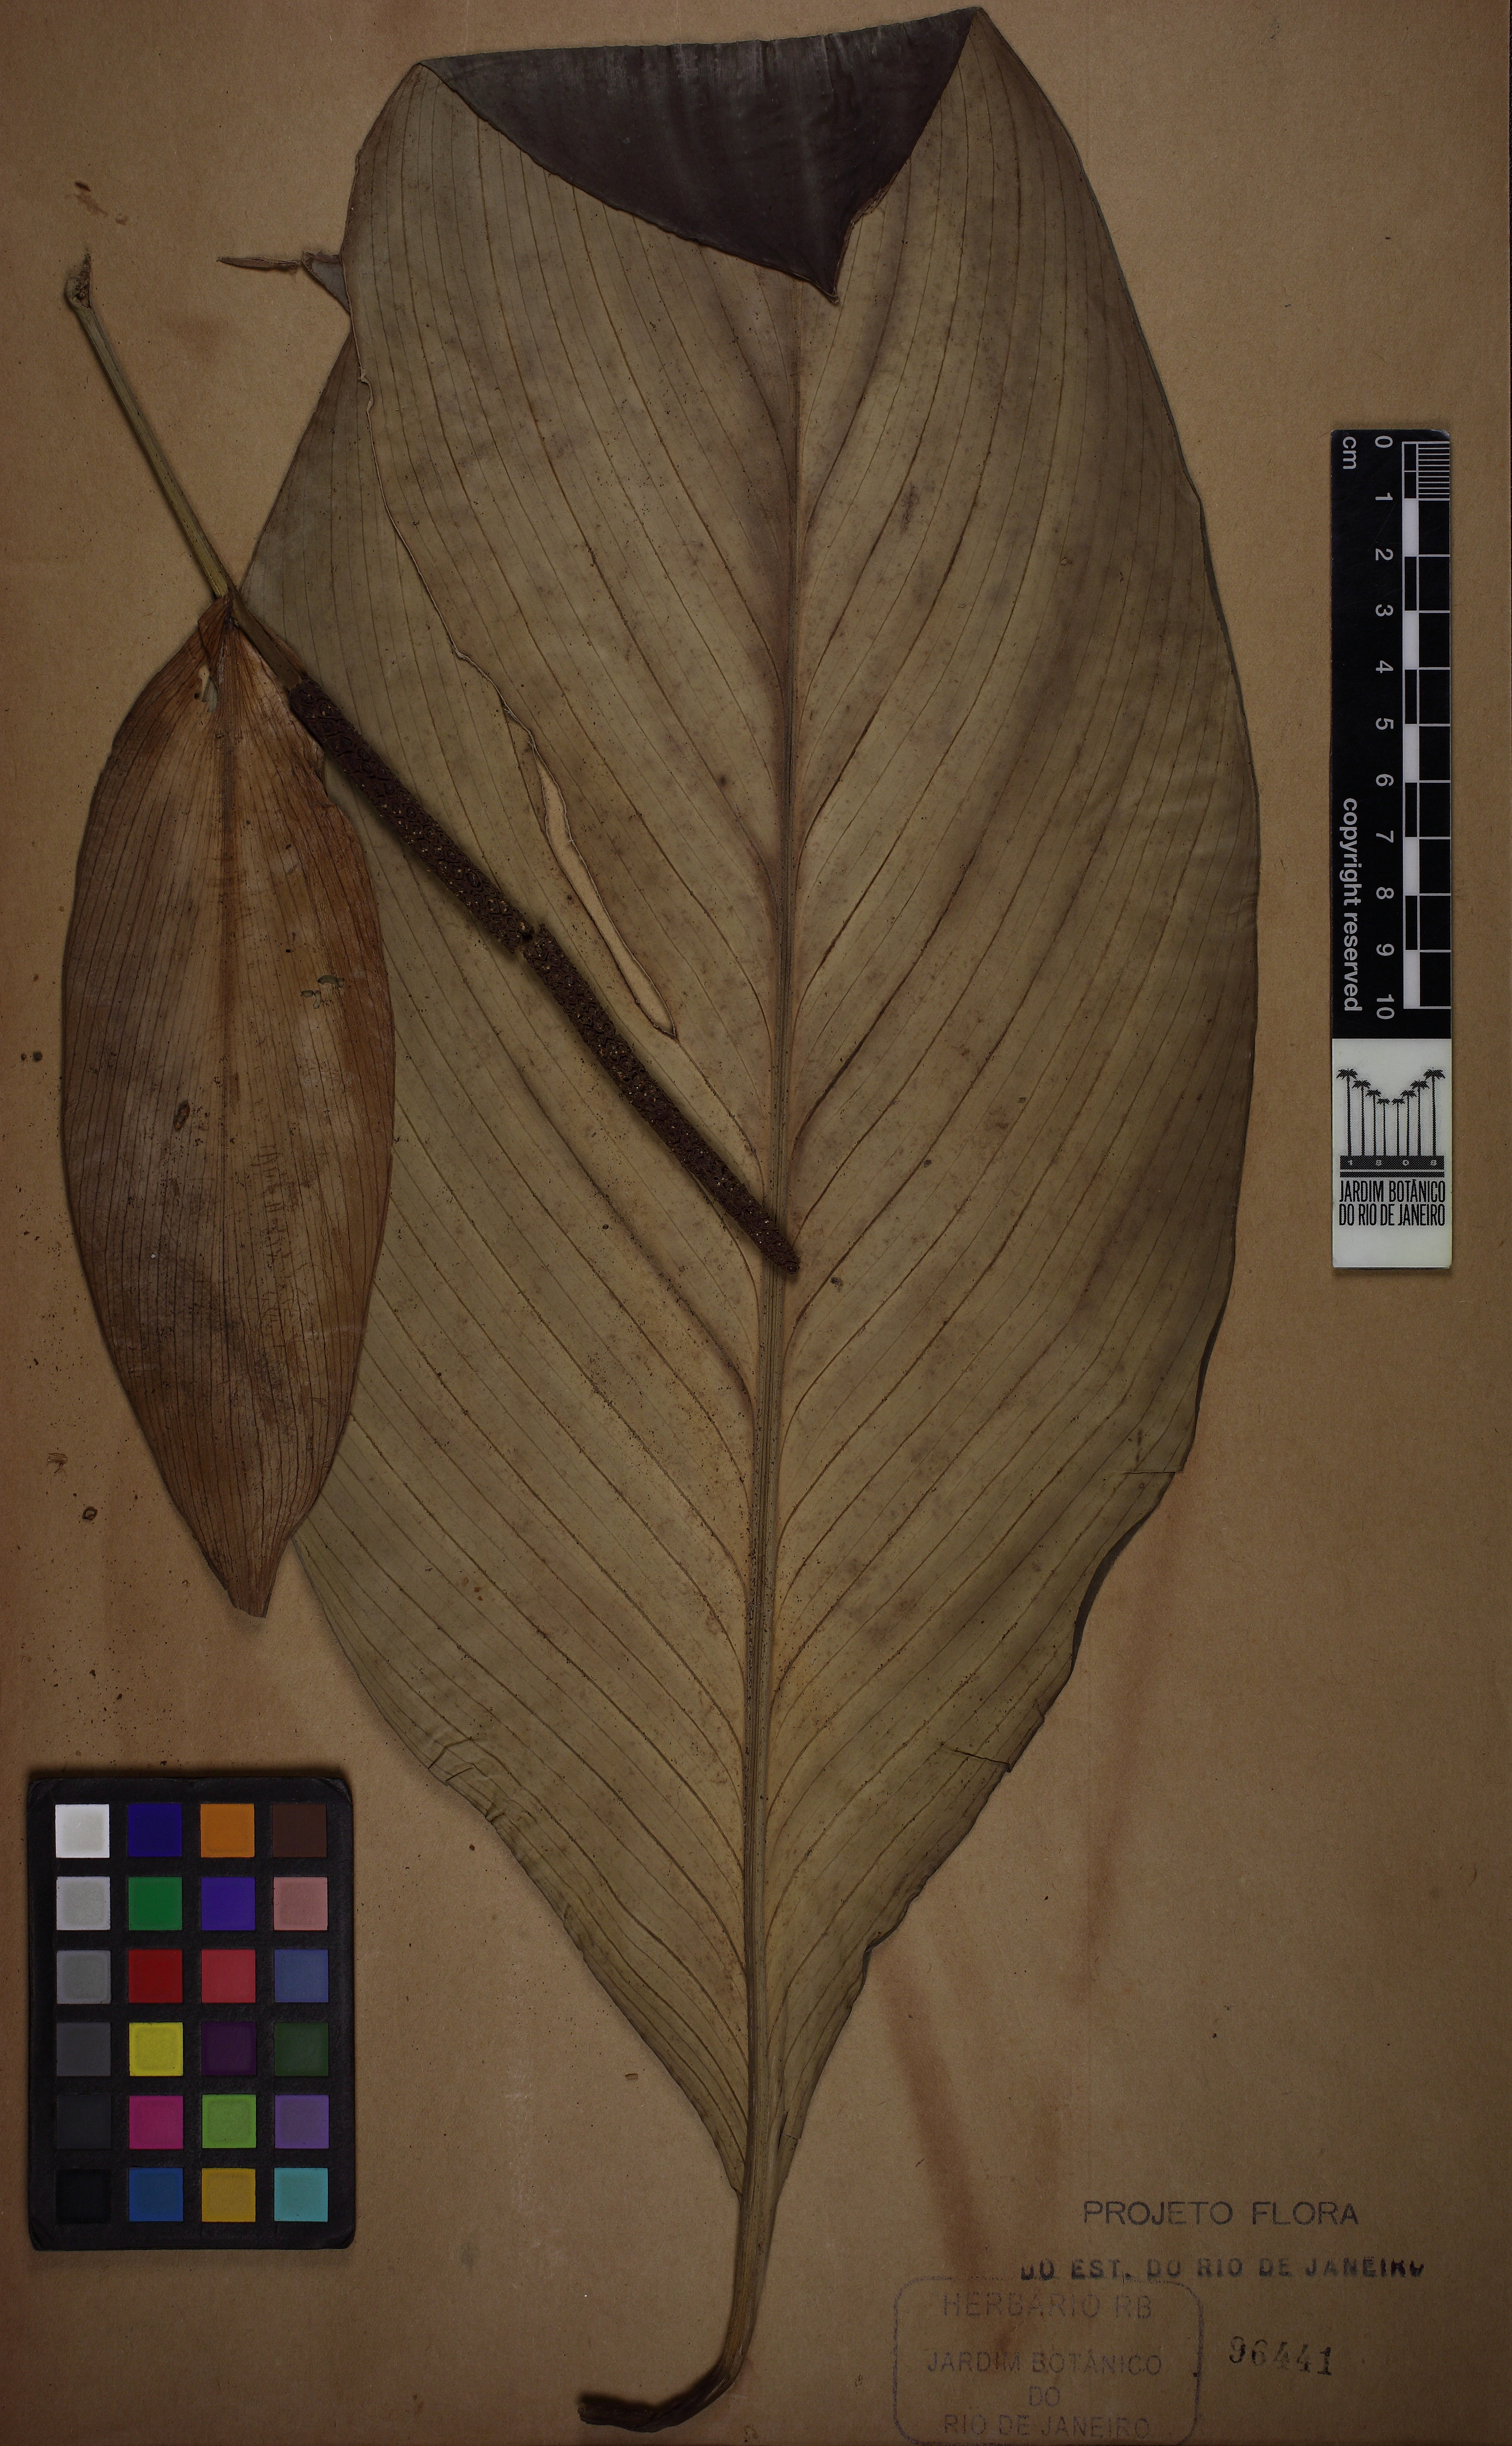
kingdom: Plantae
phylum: Tracheophyta
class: Liliopsida
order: Alismatales
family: Araceae
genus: Spathiphyllum
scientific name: Spathiphyllum cannifolium
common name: Spatheflower
